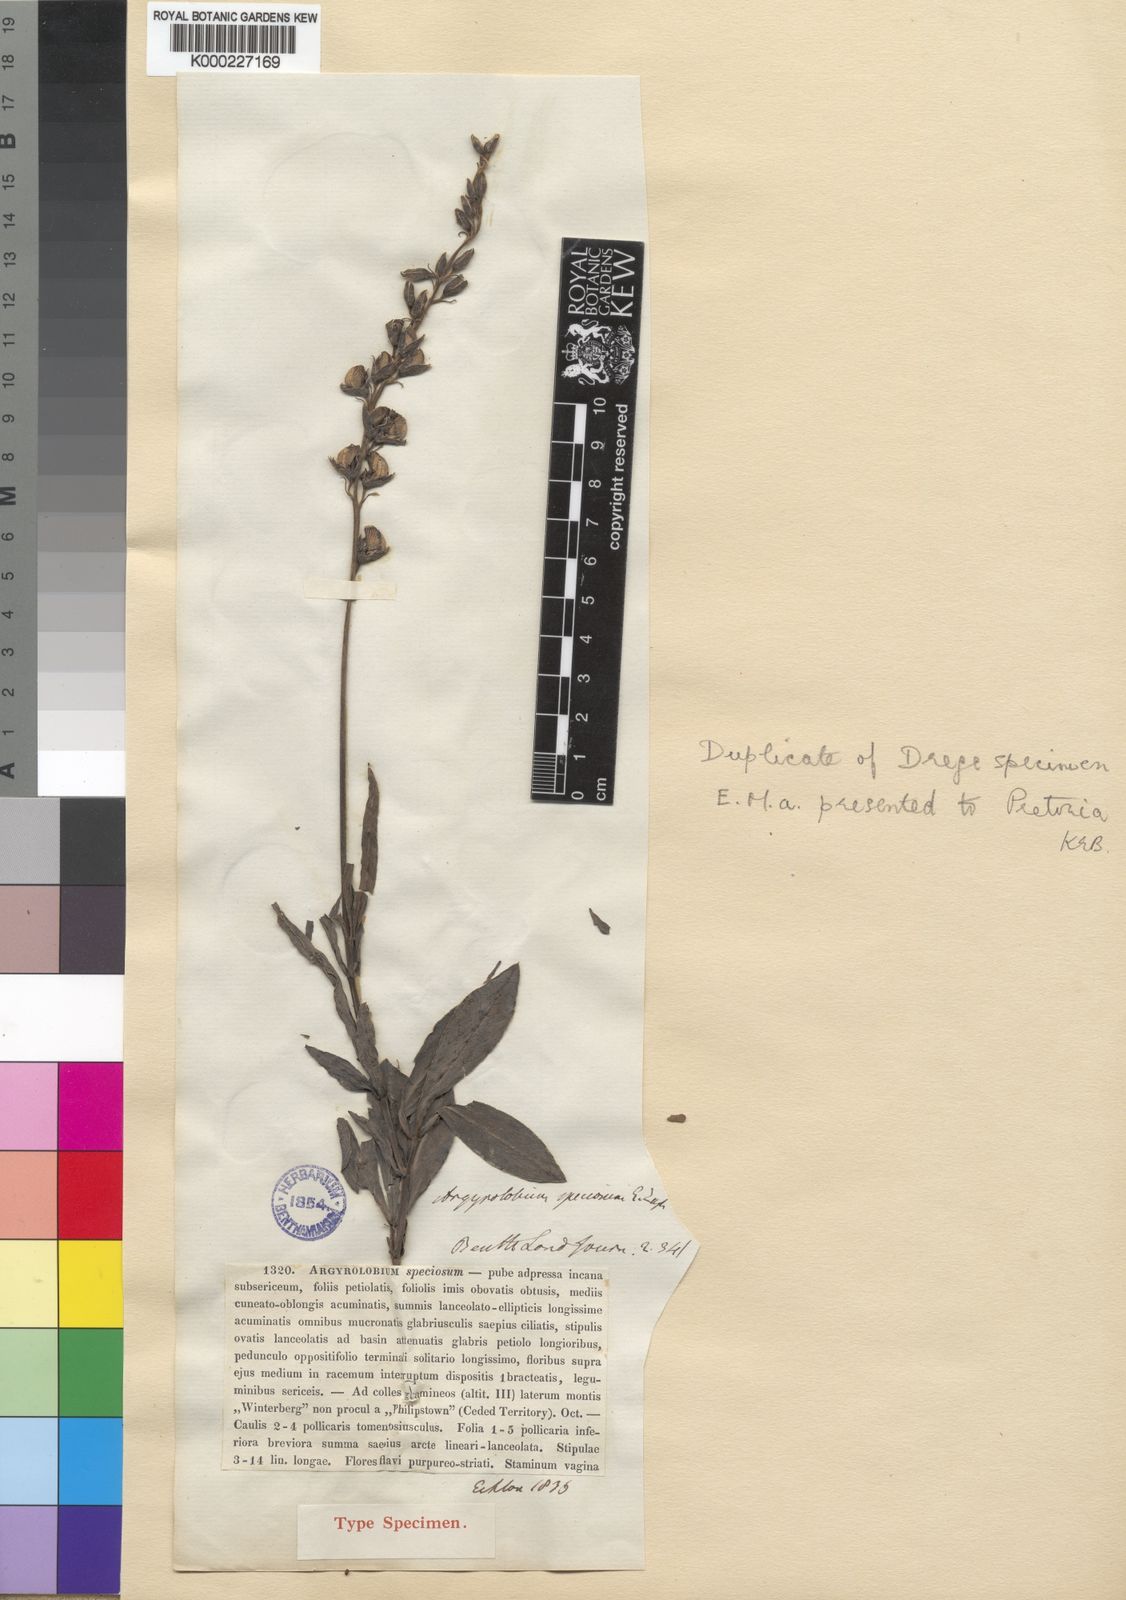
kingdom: Plantae
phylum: Tracheophyta
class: Magnoliopsida
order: Fabales
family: Fabaceae
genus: Argyrolobium
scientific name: Argyrolobium speciosum
